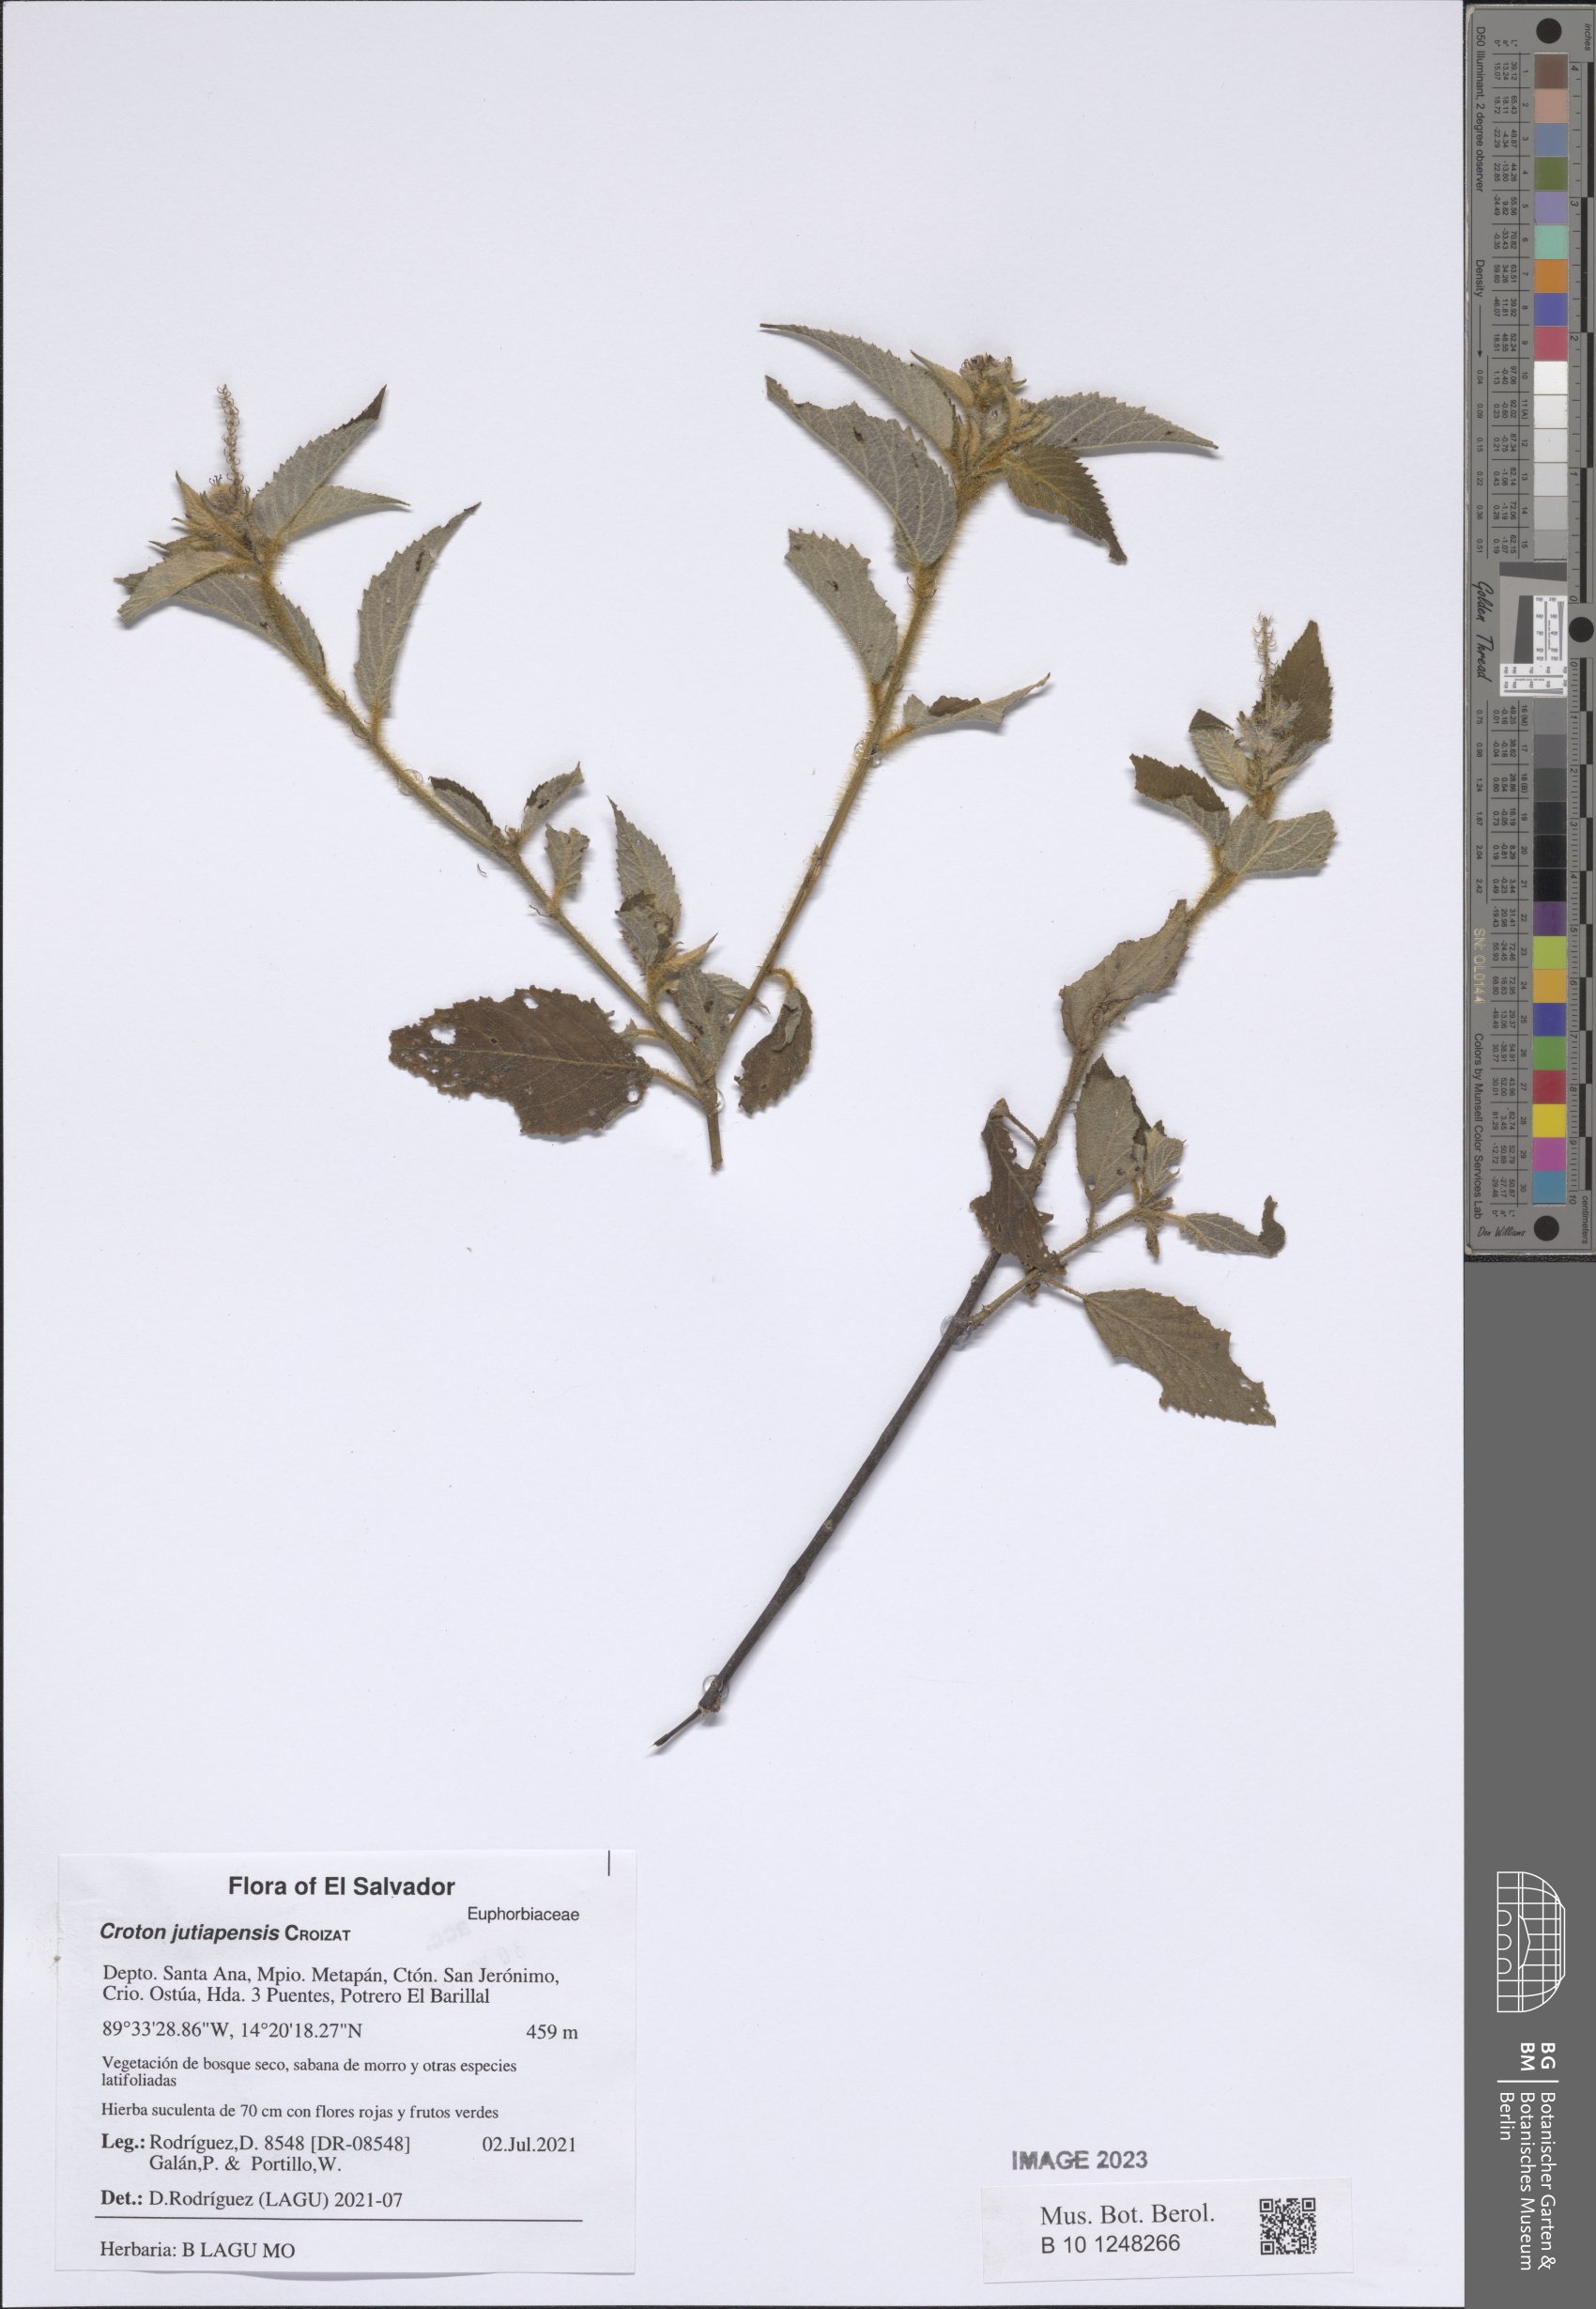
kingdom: Plantae
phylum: Tracheophyta
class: Magnoliopsida
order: Malpighiales
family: Euphorbiaceae
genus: Croton
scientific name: Croton jutiapensis
